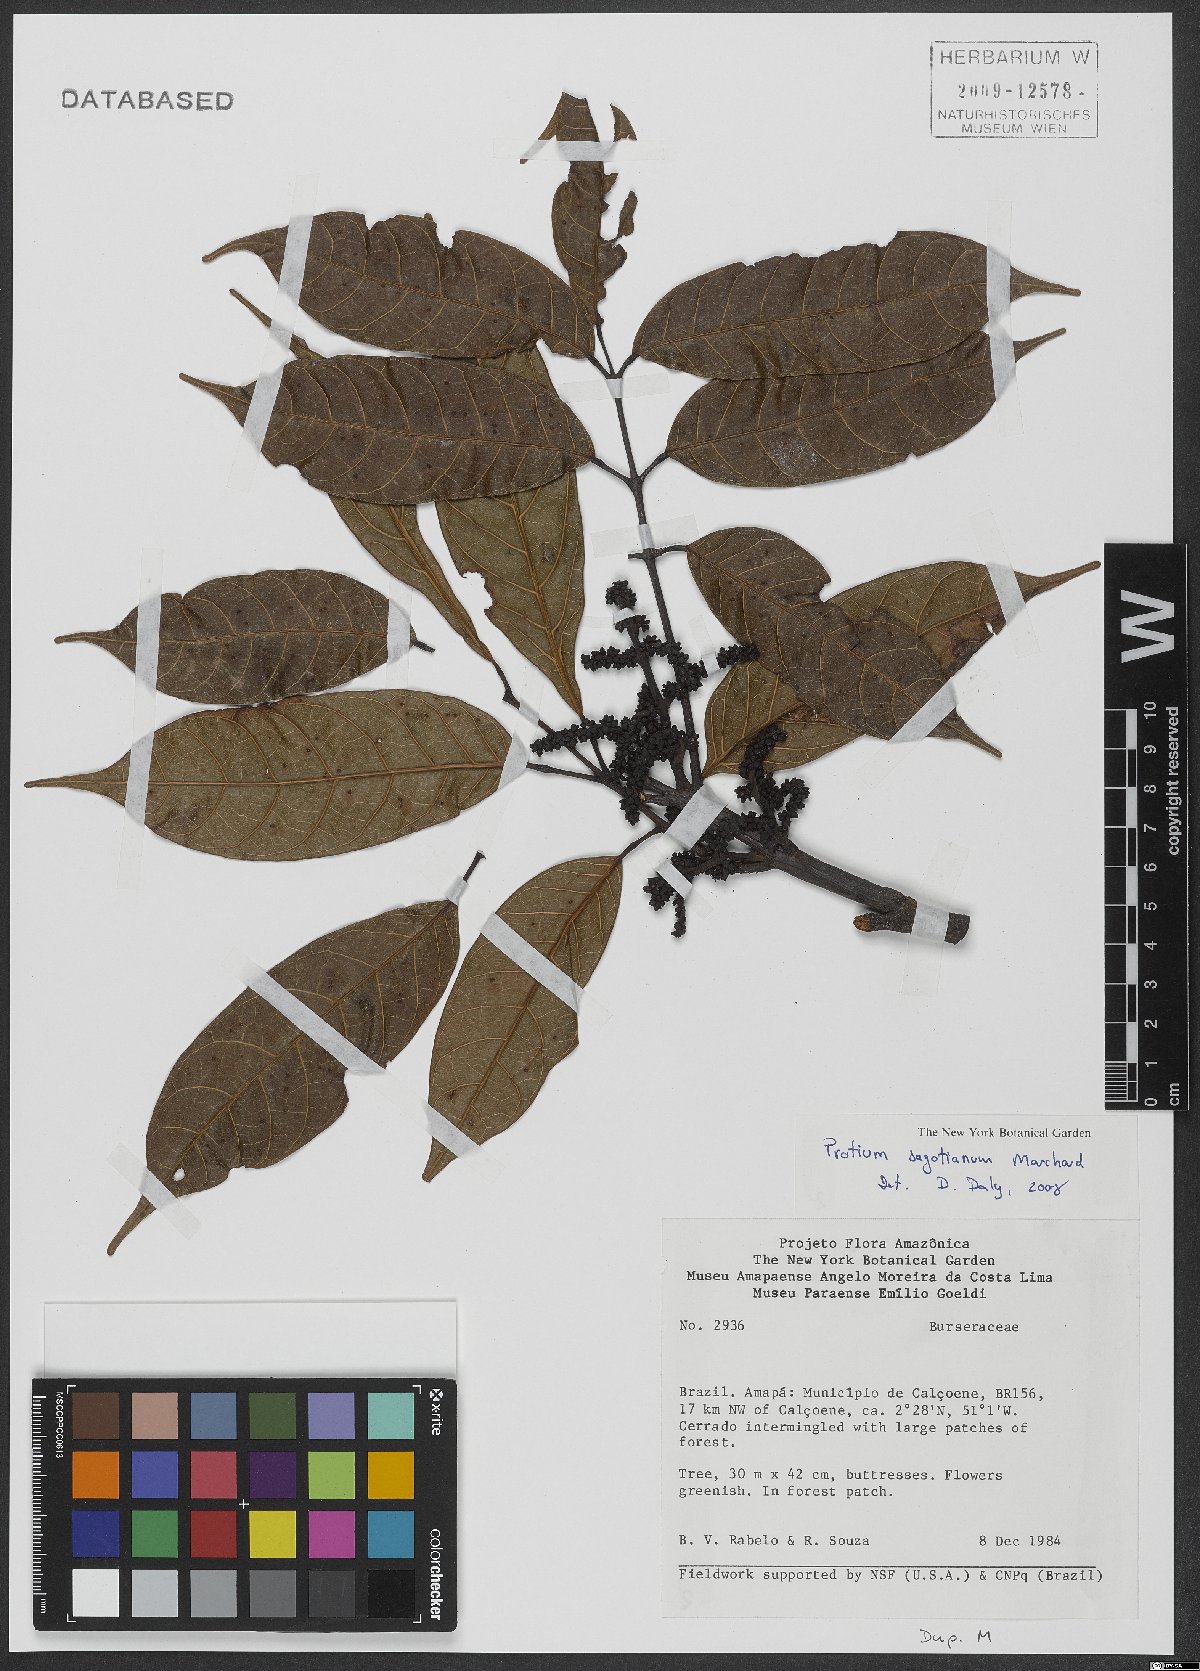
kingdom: Plantae
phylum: Tracheophyta
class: Magnoliopsida
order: Sapindales
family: Burseraceae
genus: Protium
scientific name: Protium
